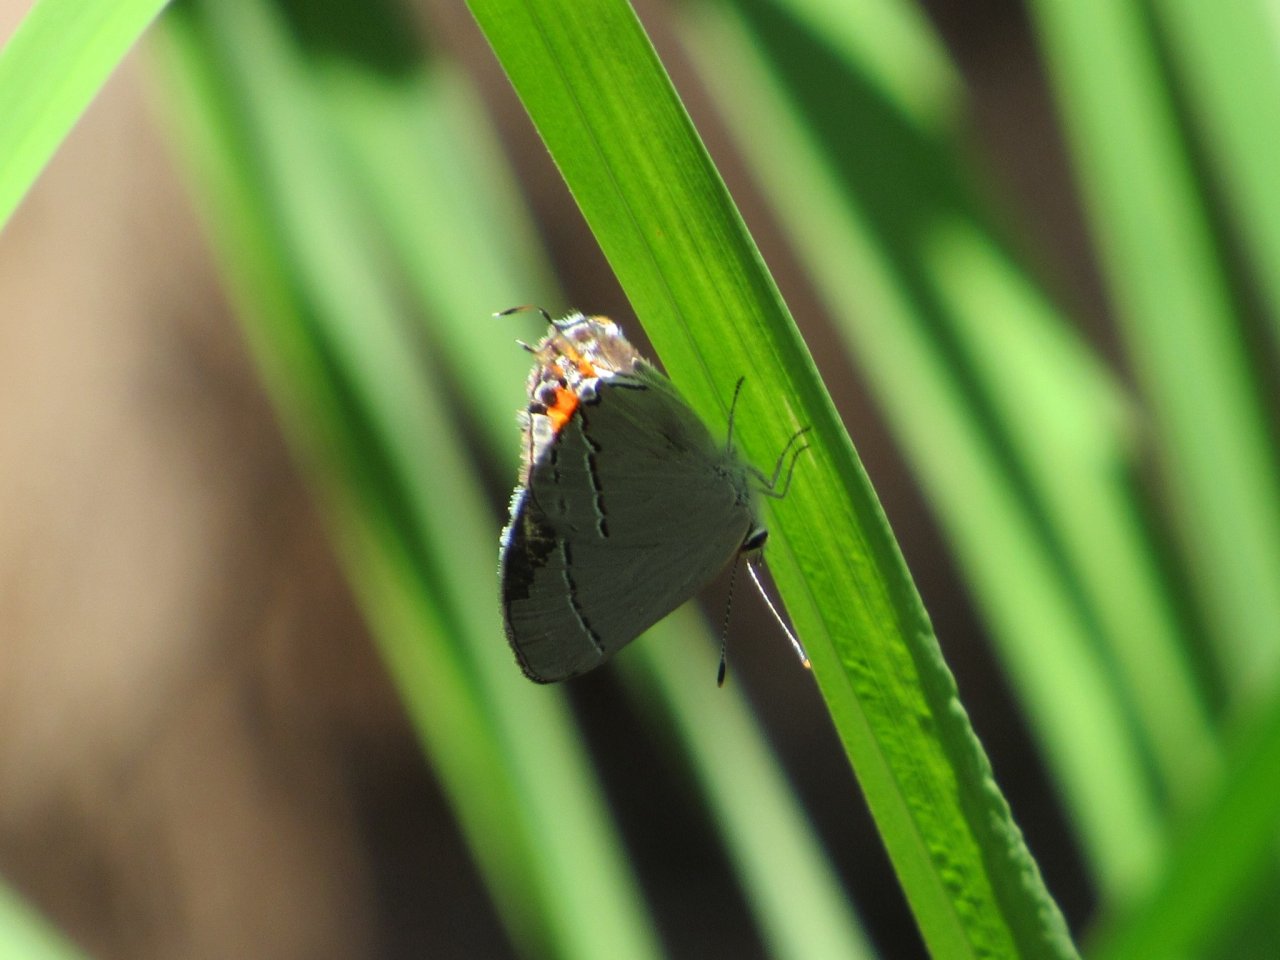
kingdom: Animalia
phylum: Arthropoda
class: Insecta
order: Lepidoptera
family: Lycaenidae
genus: Strymon
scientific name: Strymon melinus
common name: Gray Hairstreak
